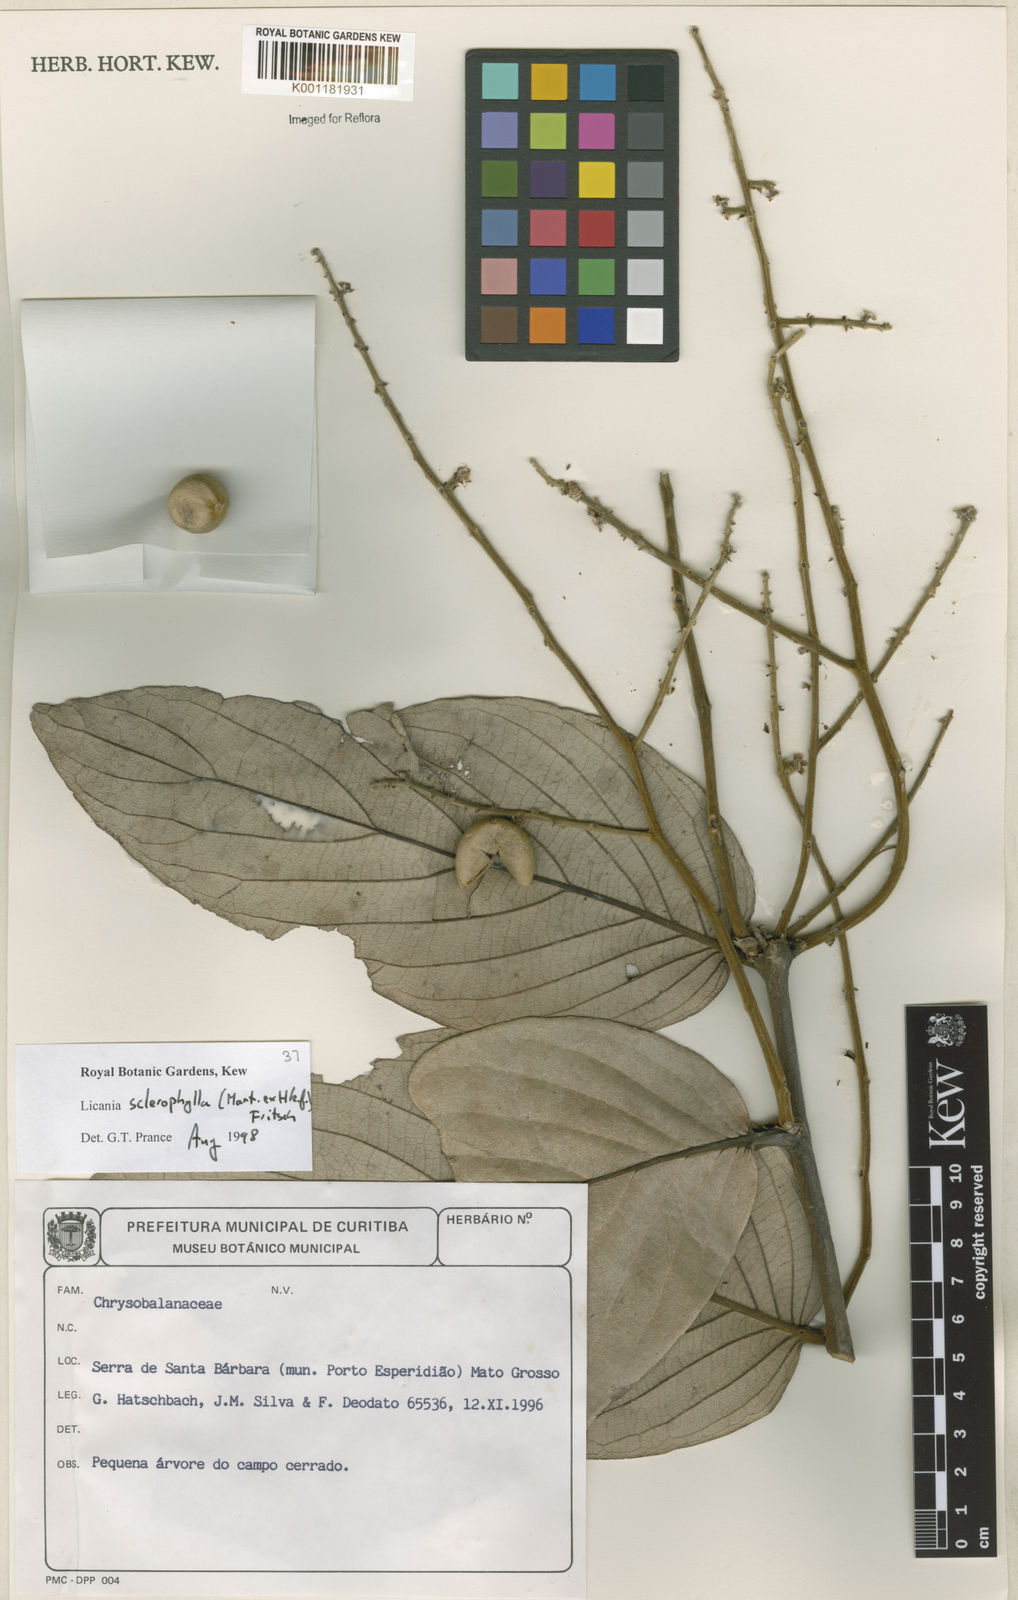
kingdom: Plantae
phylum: Tracheophyta
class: Magnoliopsida
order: Malpighiales
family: Chrysobalanaceae
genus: Leptobalanus
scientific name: Leptobalanus sclerophyllus
